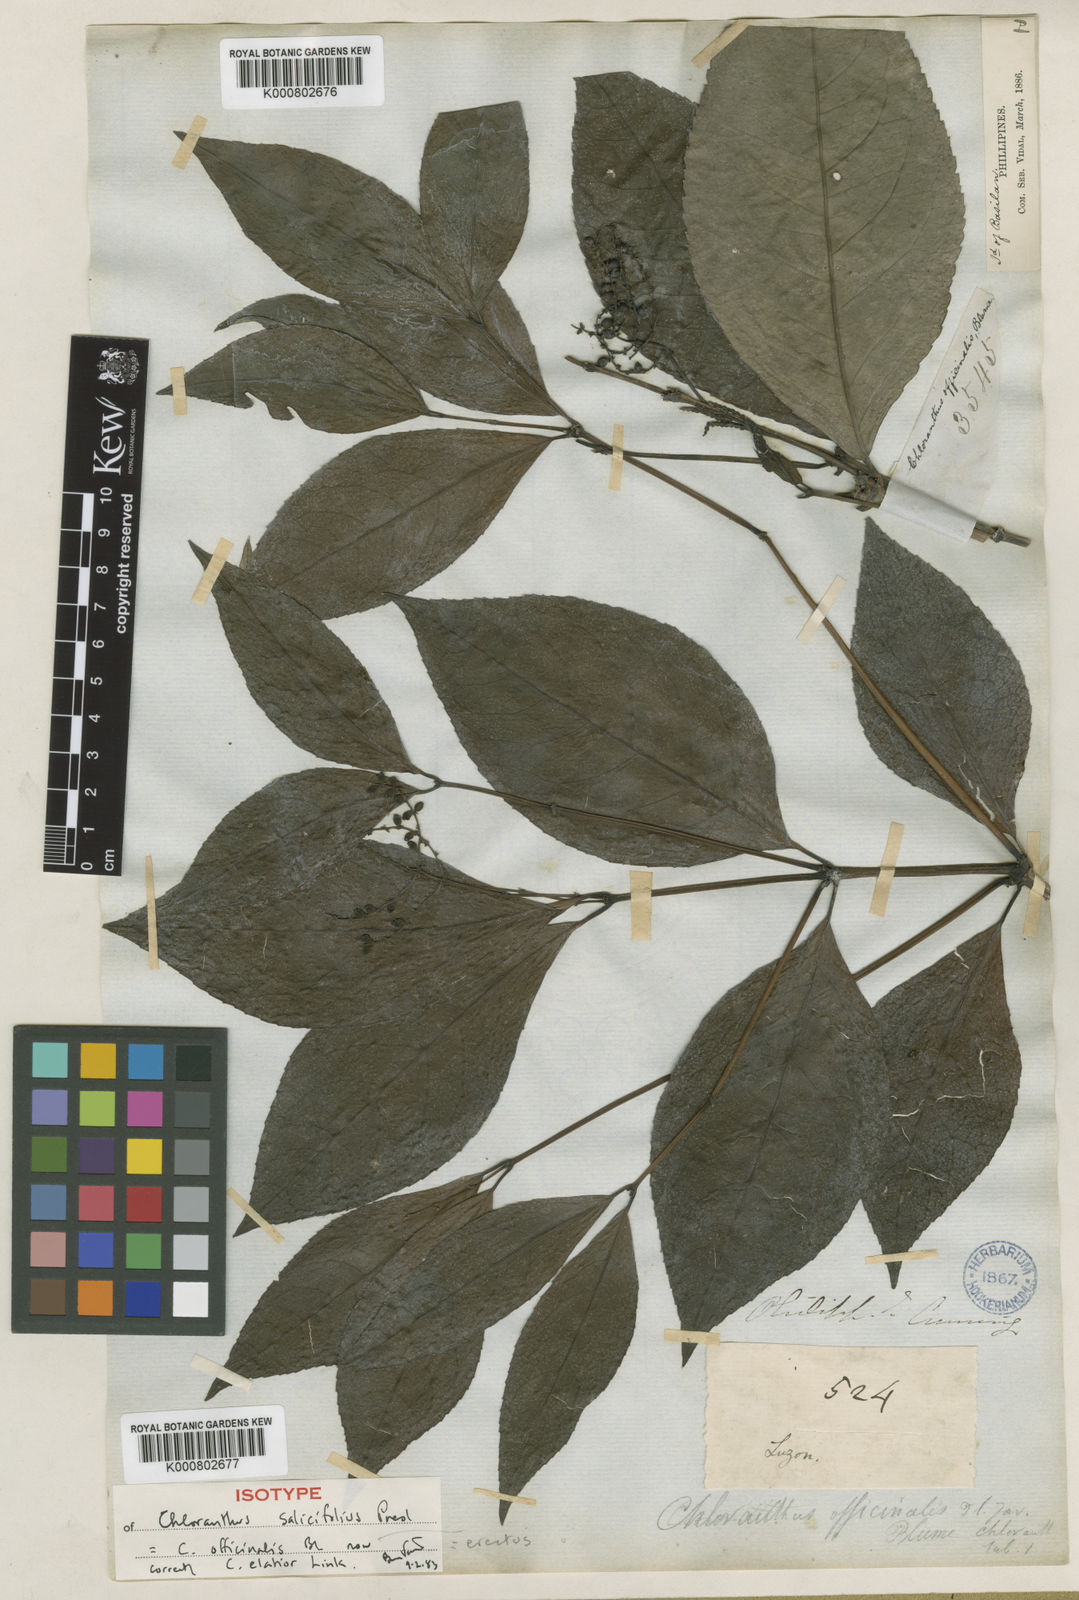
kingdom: Plantae
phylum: Tracheophyta
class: Magnoliopsida
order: Chloranthales
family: Chloranthaceae
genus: Chloranthus
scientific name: Chloranthus elatior
